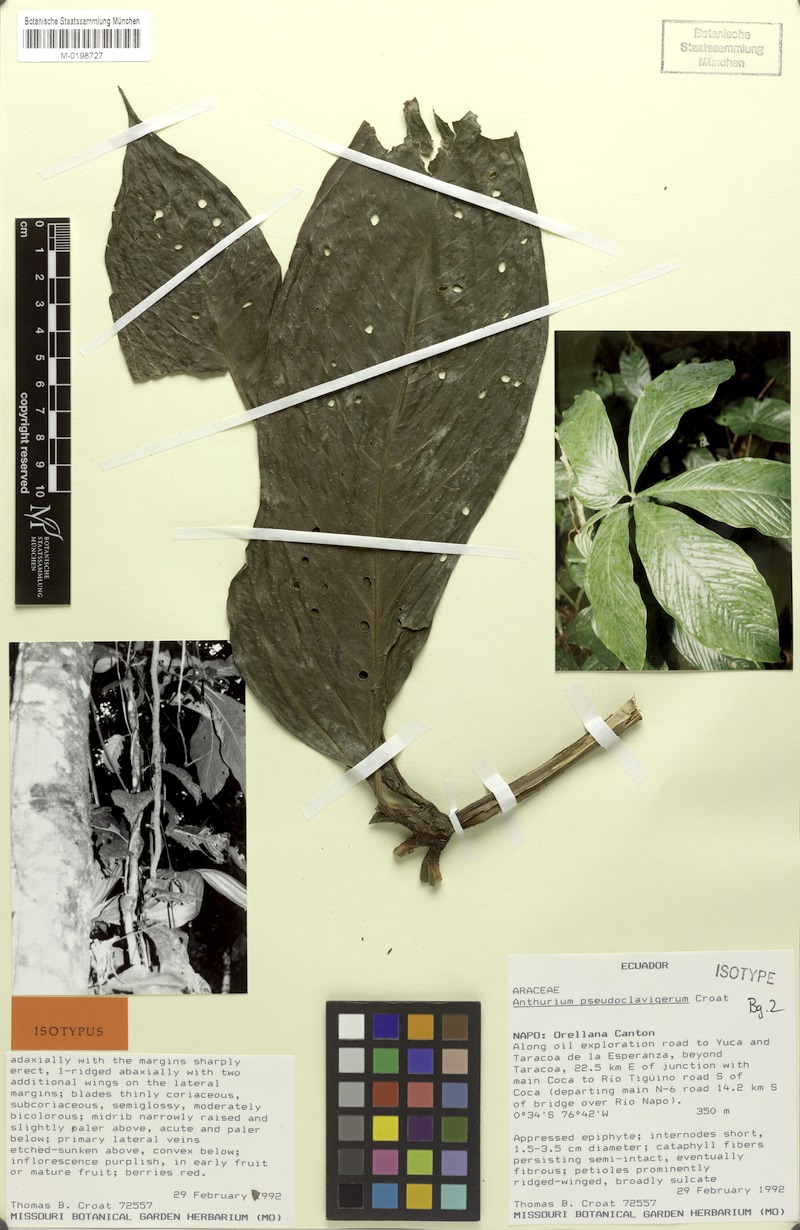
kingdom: Plantae
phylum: Tracheophyta
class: Liliopsida
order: Alismatales
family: Araceae
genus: Anthurium
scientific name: Anthurium pseudoclavigerum
